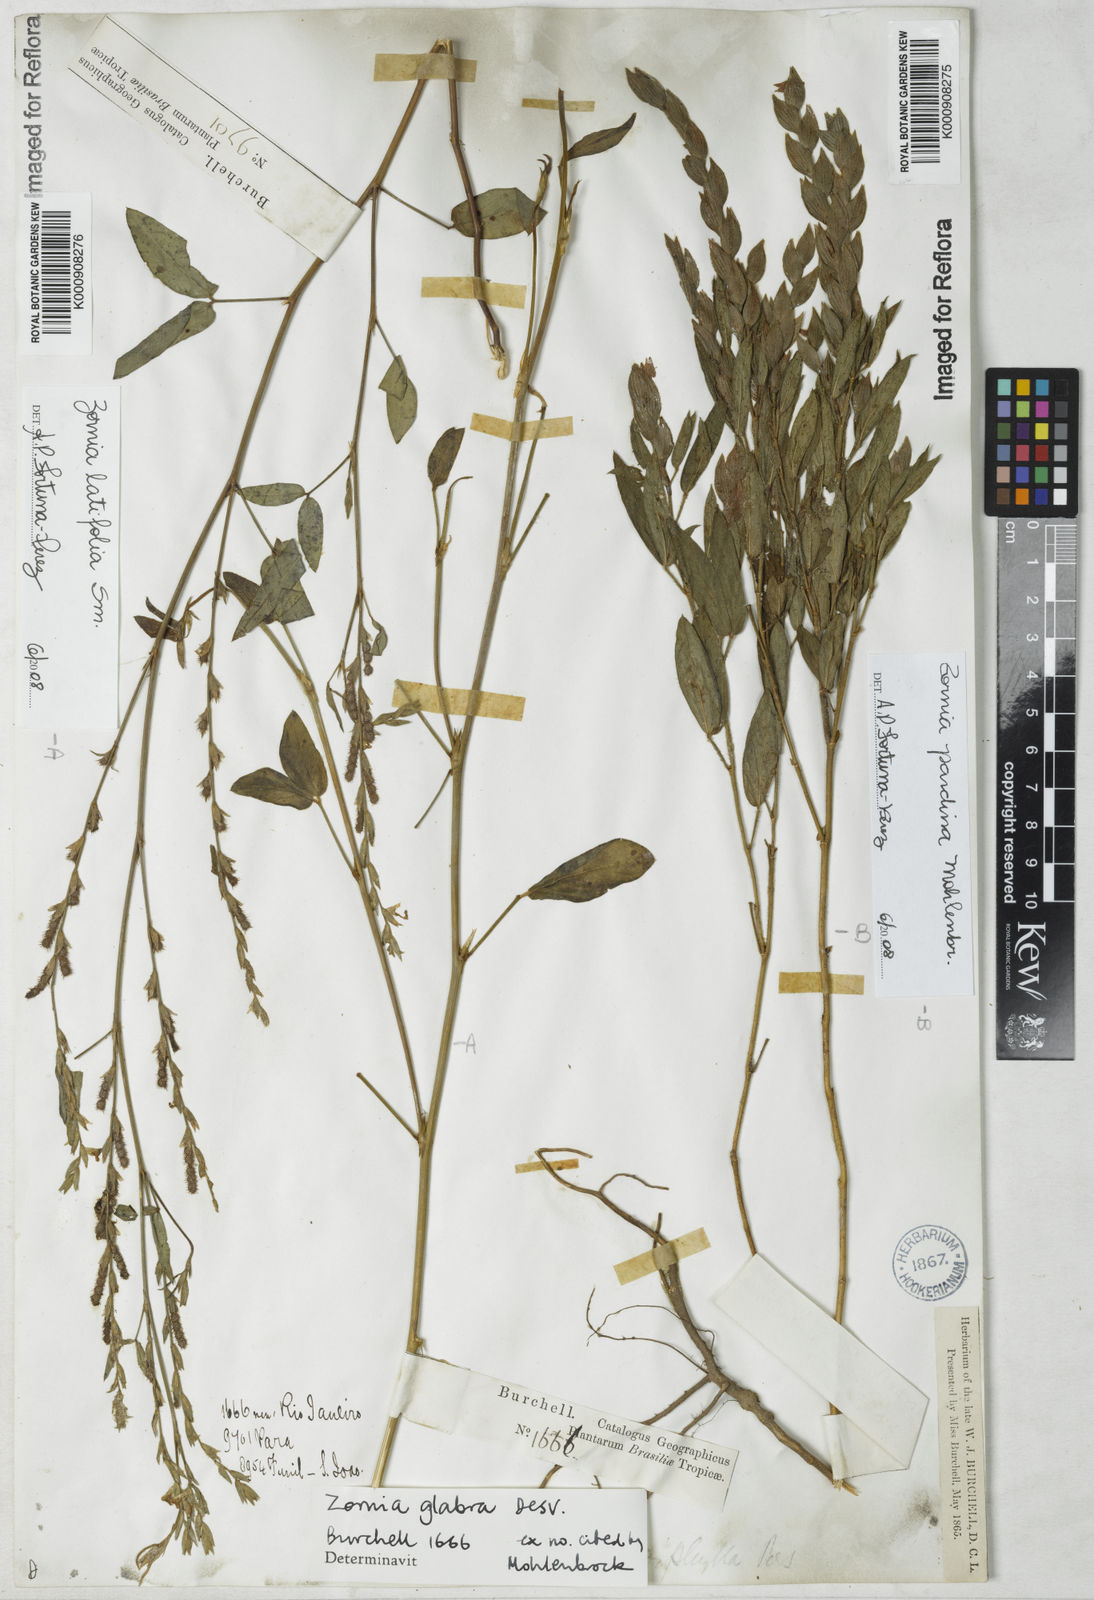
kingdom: Plantae
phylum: Tracheophyta
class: Magnoliopsida
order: Fabales
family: Fabaceae
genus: Zornia
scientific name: Zornia
